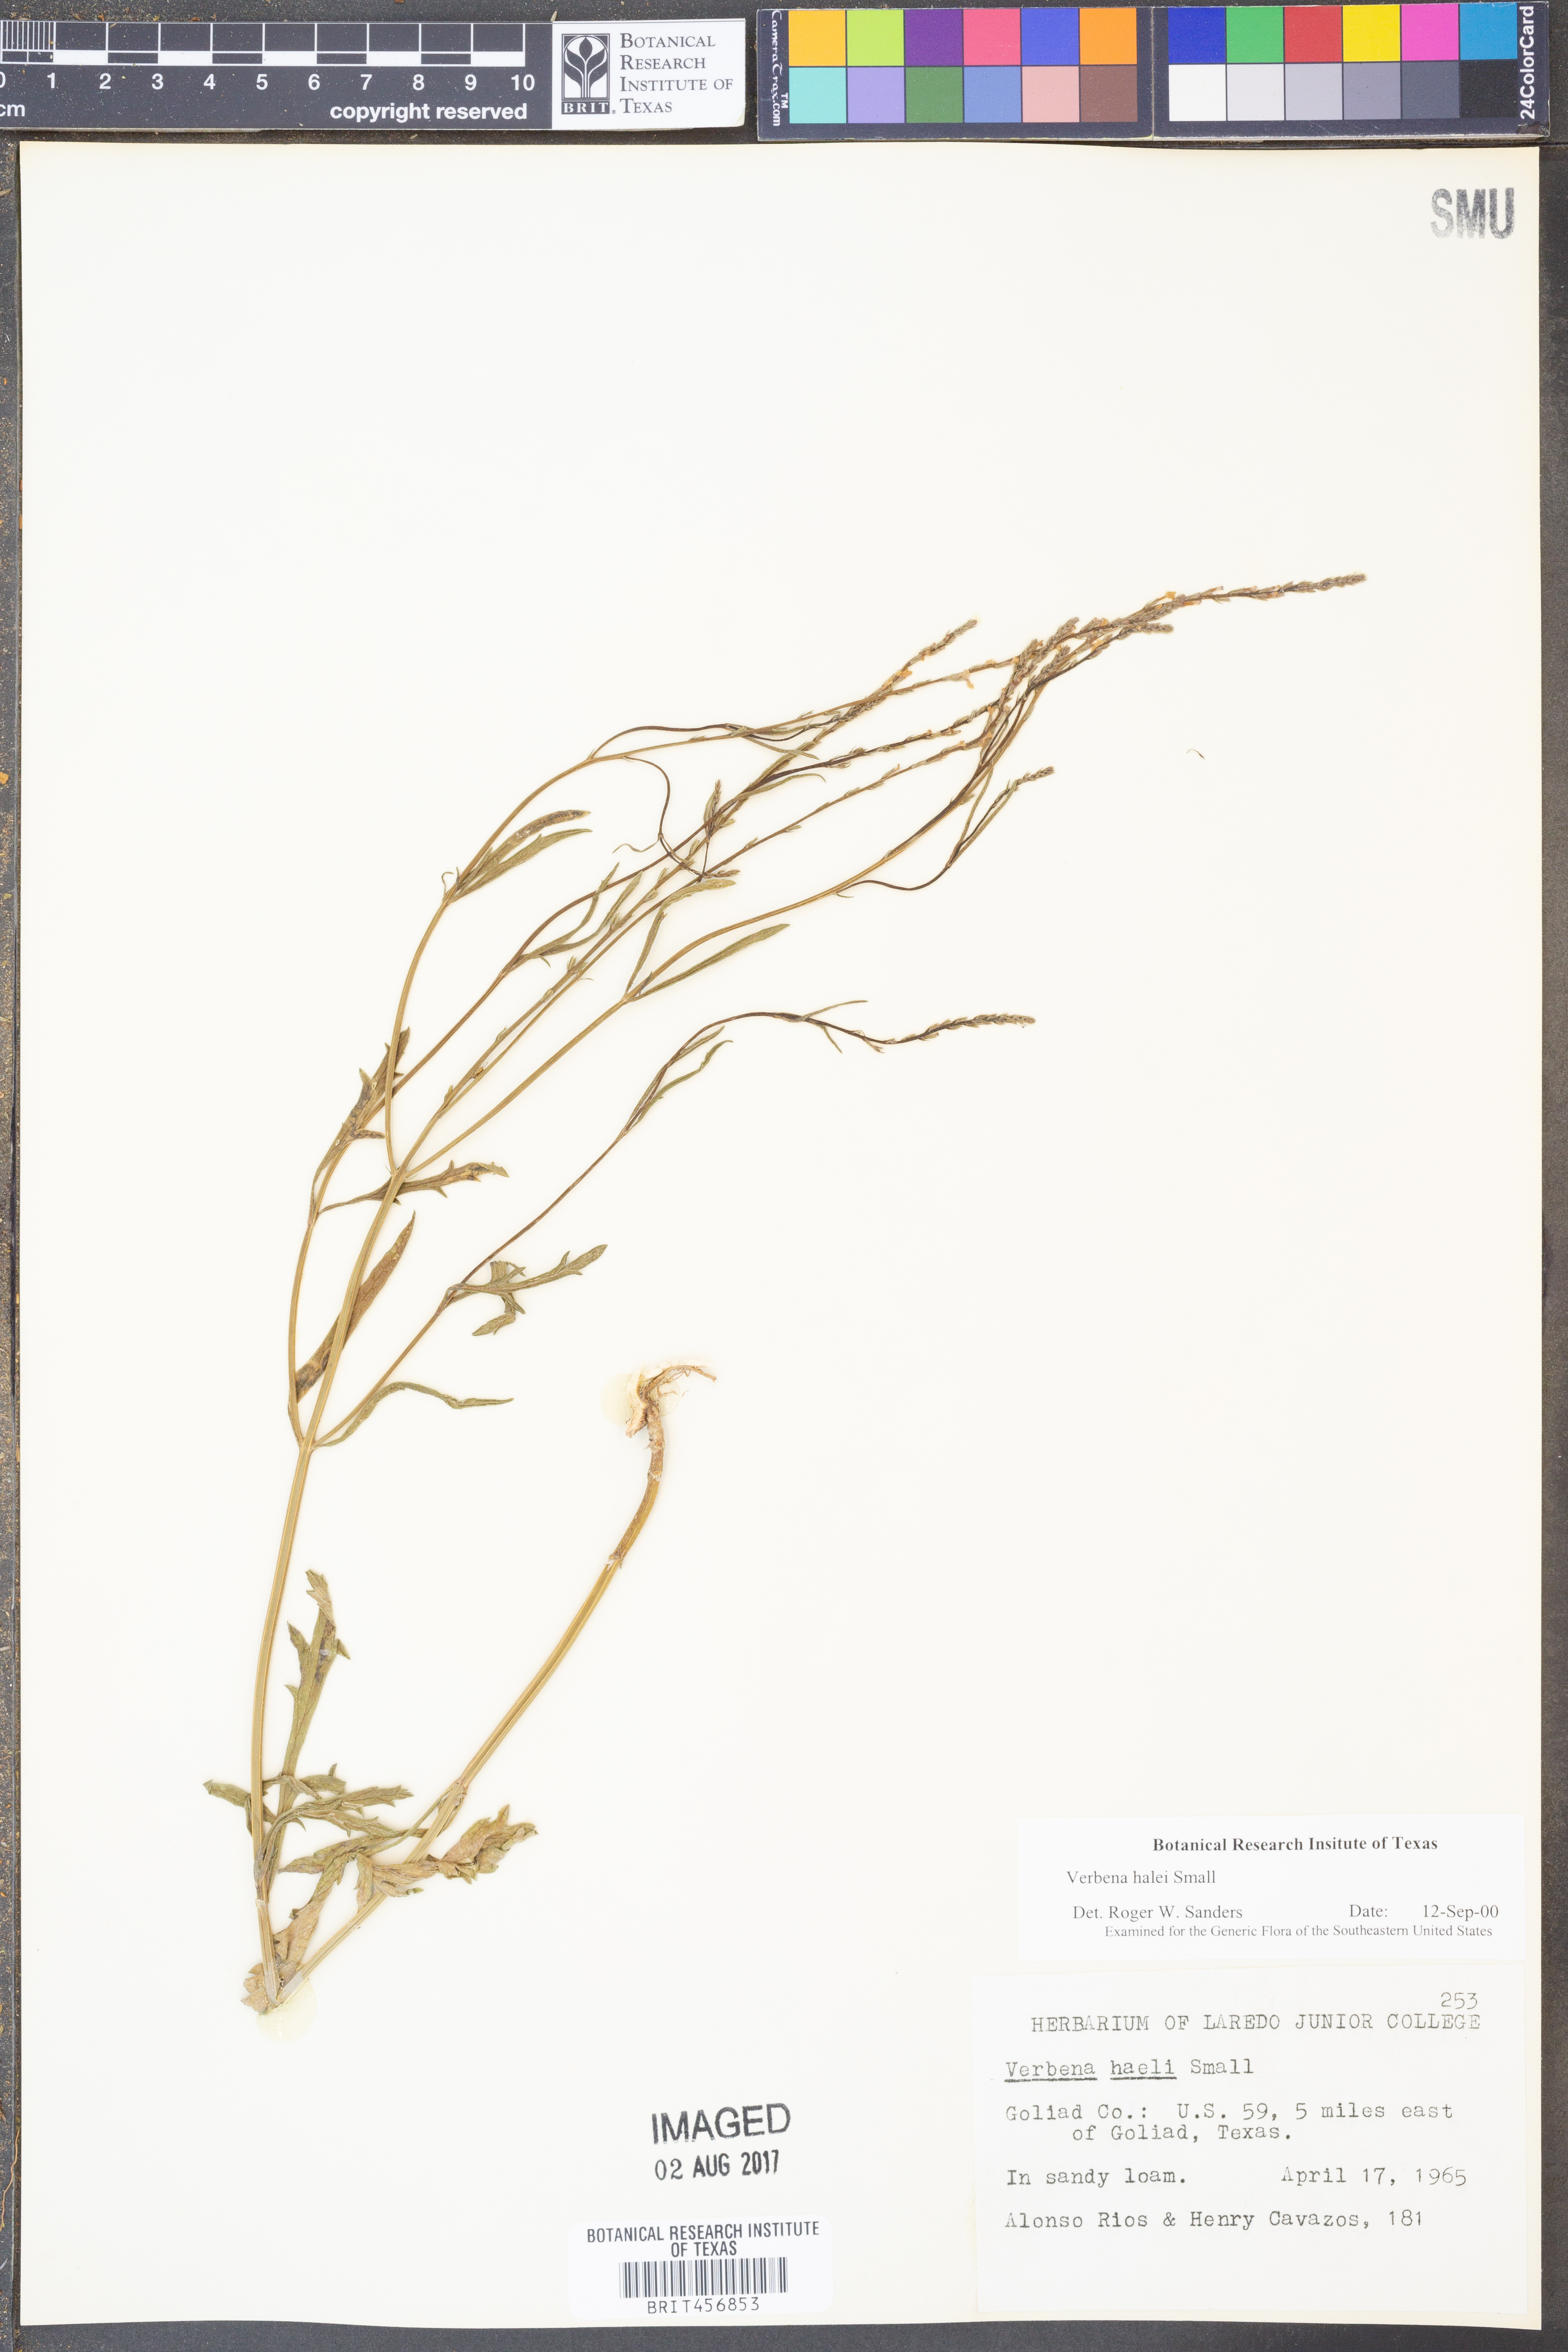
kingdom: Plantae
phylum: Tracheophyta
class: Magnoliopsida
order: Lamiales
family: Verbenaceae
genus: Verbena
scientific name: Verbena halei
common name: Texas vervain
